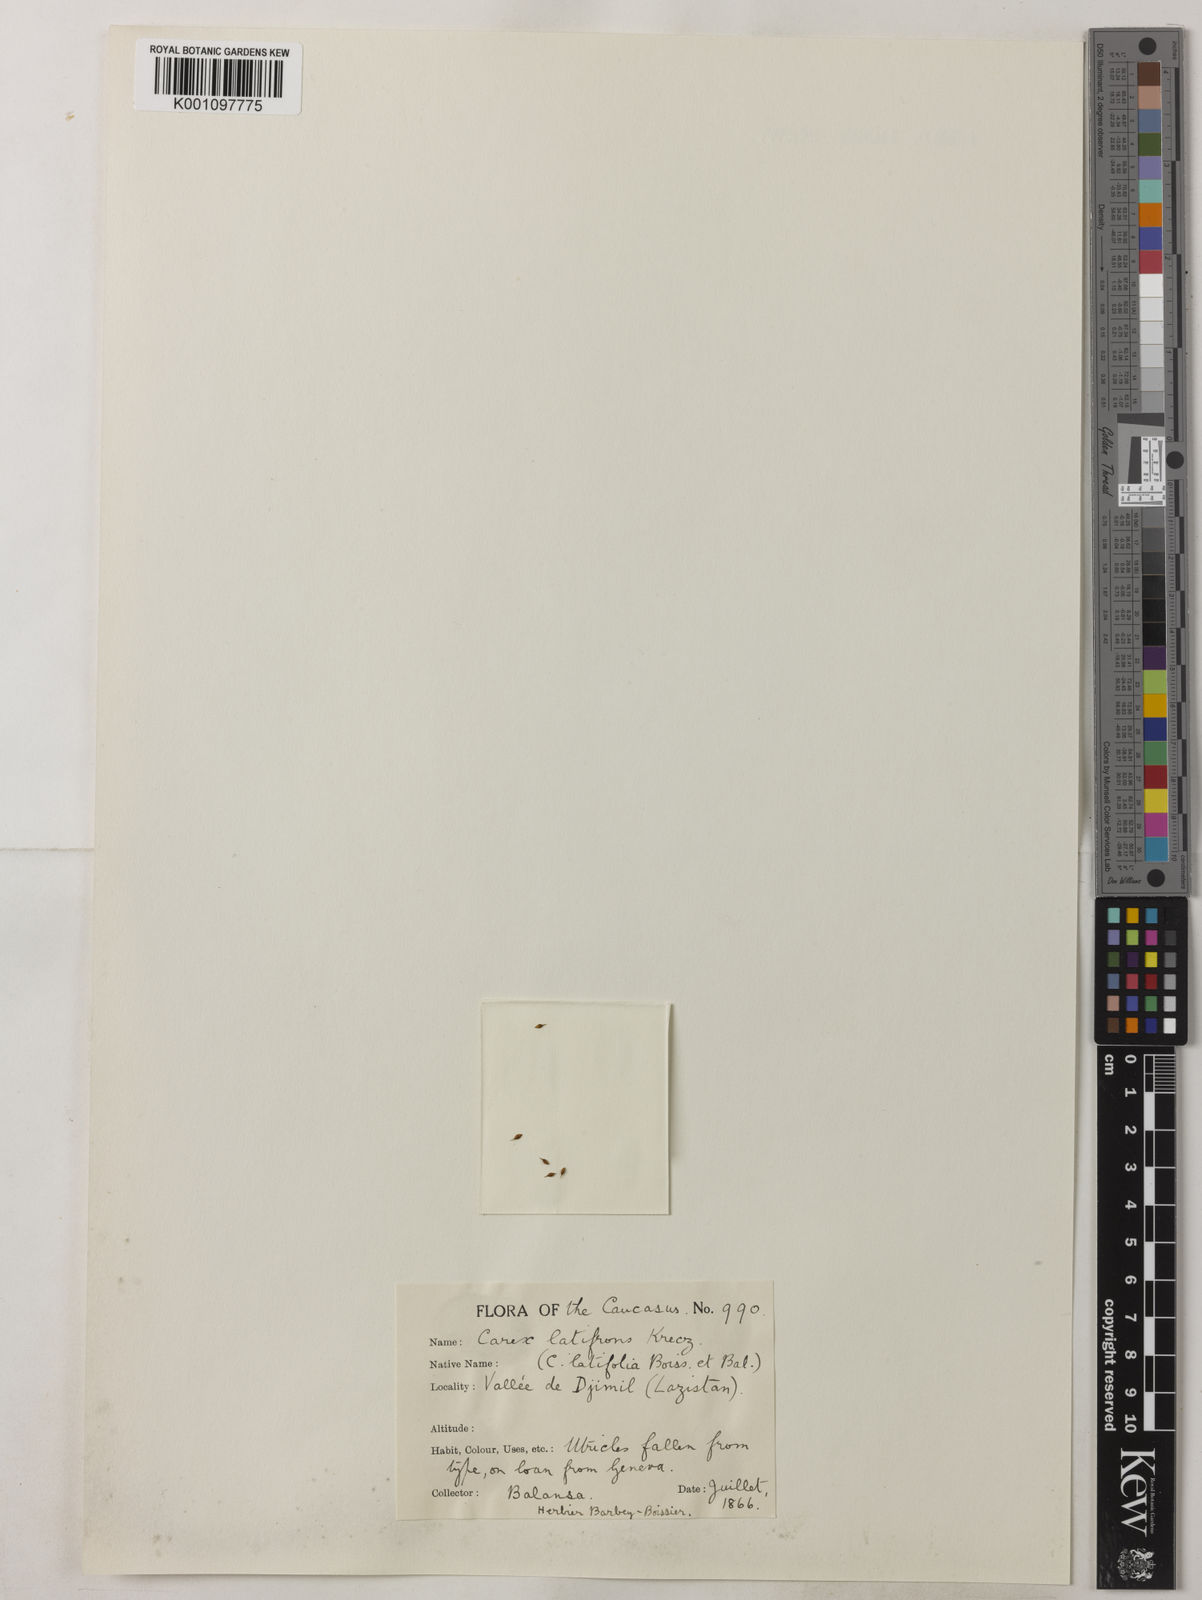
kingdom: Plantae
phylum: Tracheophyta
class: Liliopsida
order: Poales
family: Cyperaceae
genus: Carex
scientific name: Carex sylvatica
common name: Wood-sedge
